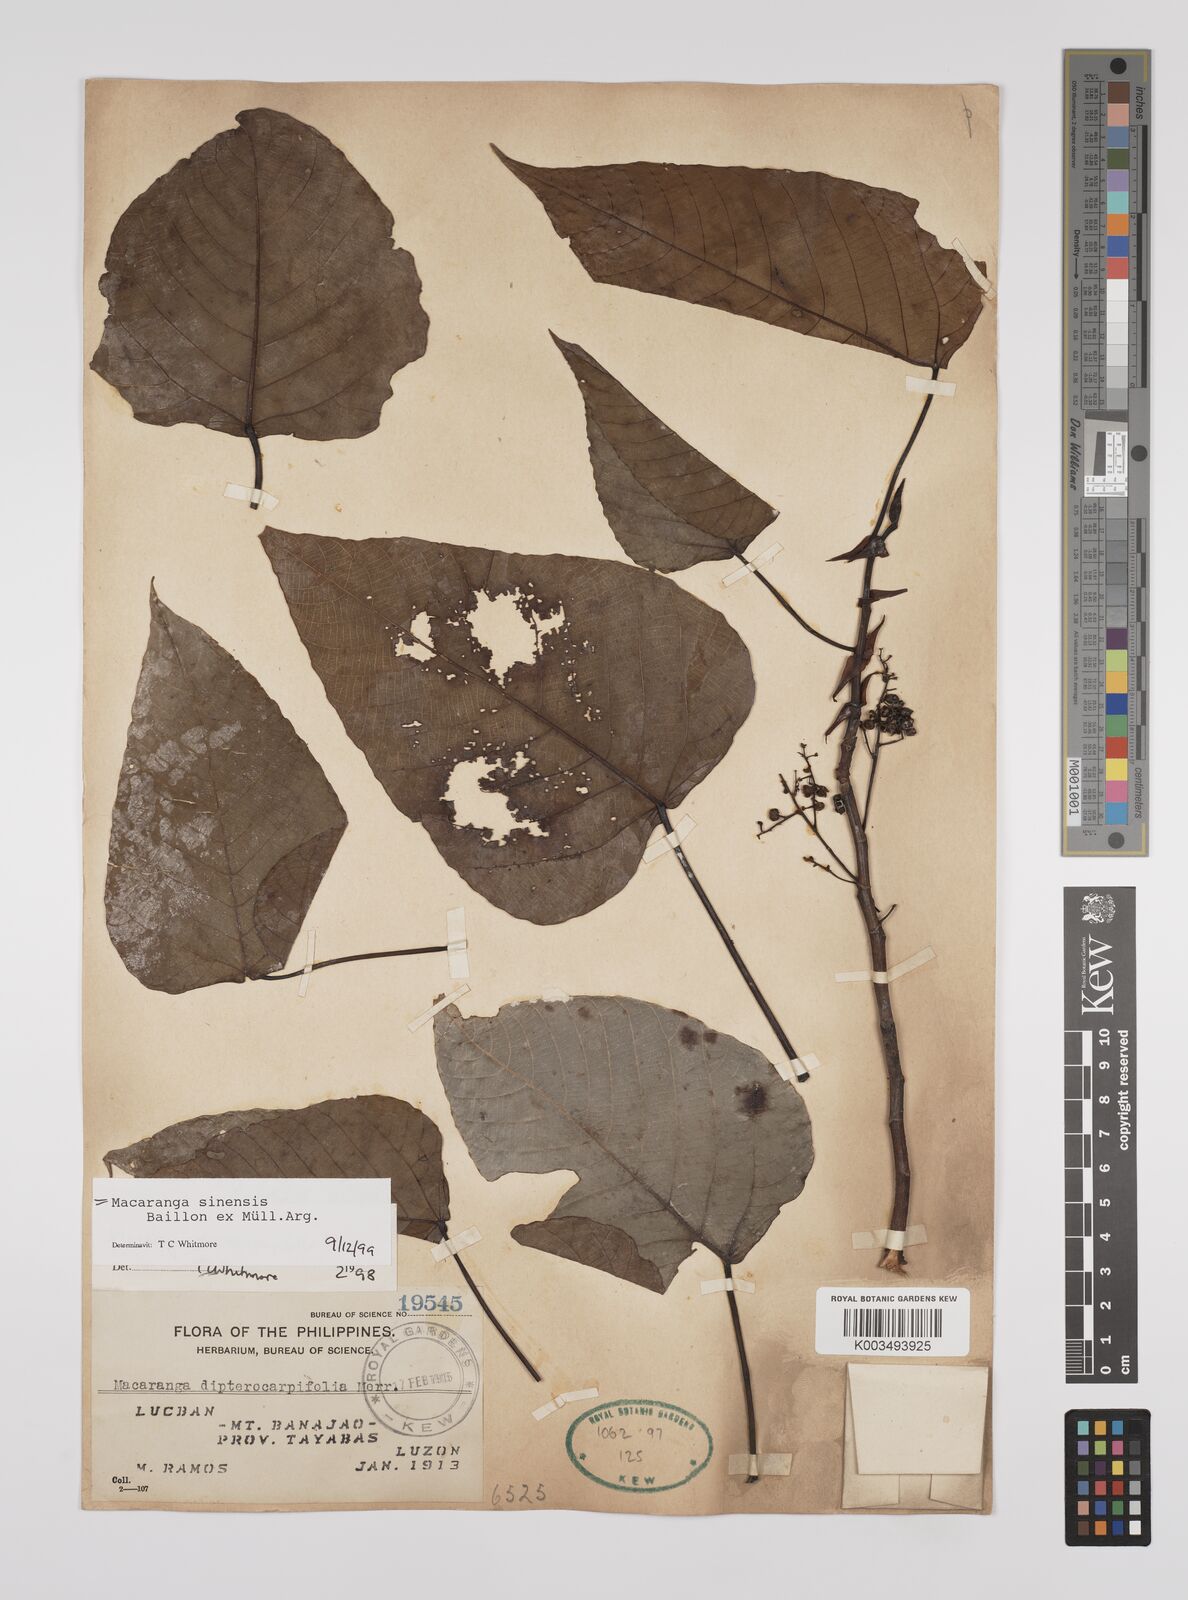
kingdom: Plantae
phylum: Tracheophyta
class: Magnoliopsida
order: Malpighiales
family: Euphorbiaceae
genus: Macaranga
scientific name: Macaranga sinensis
